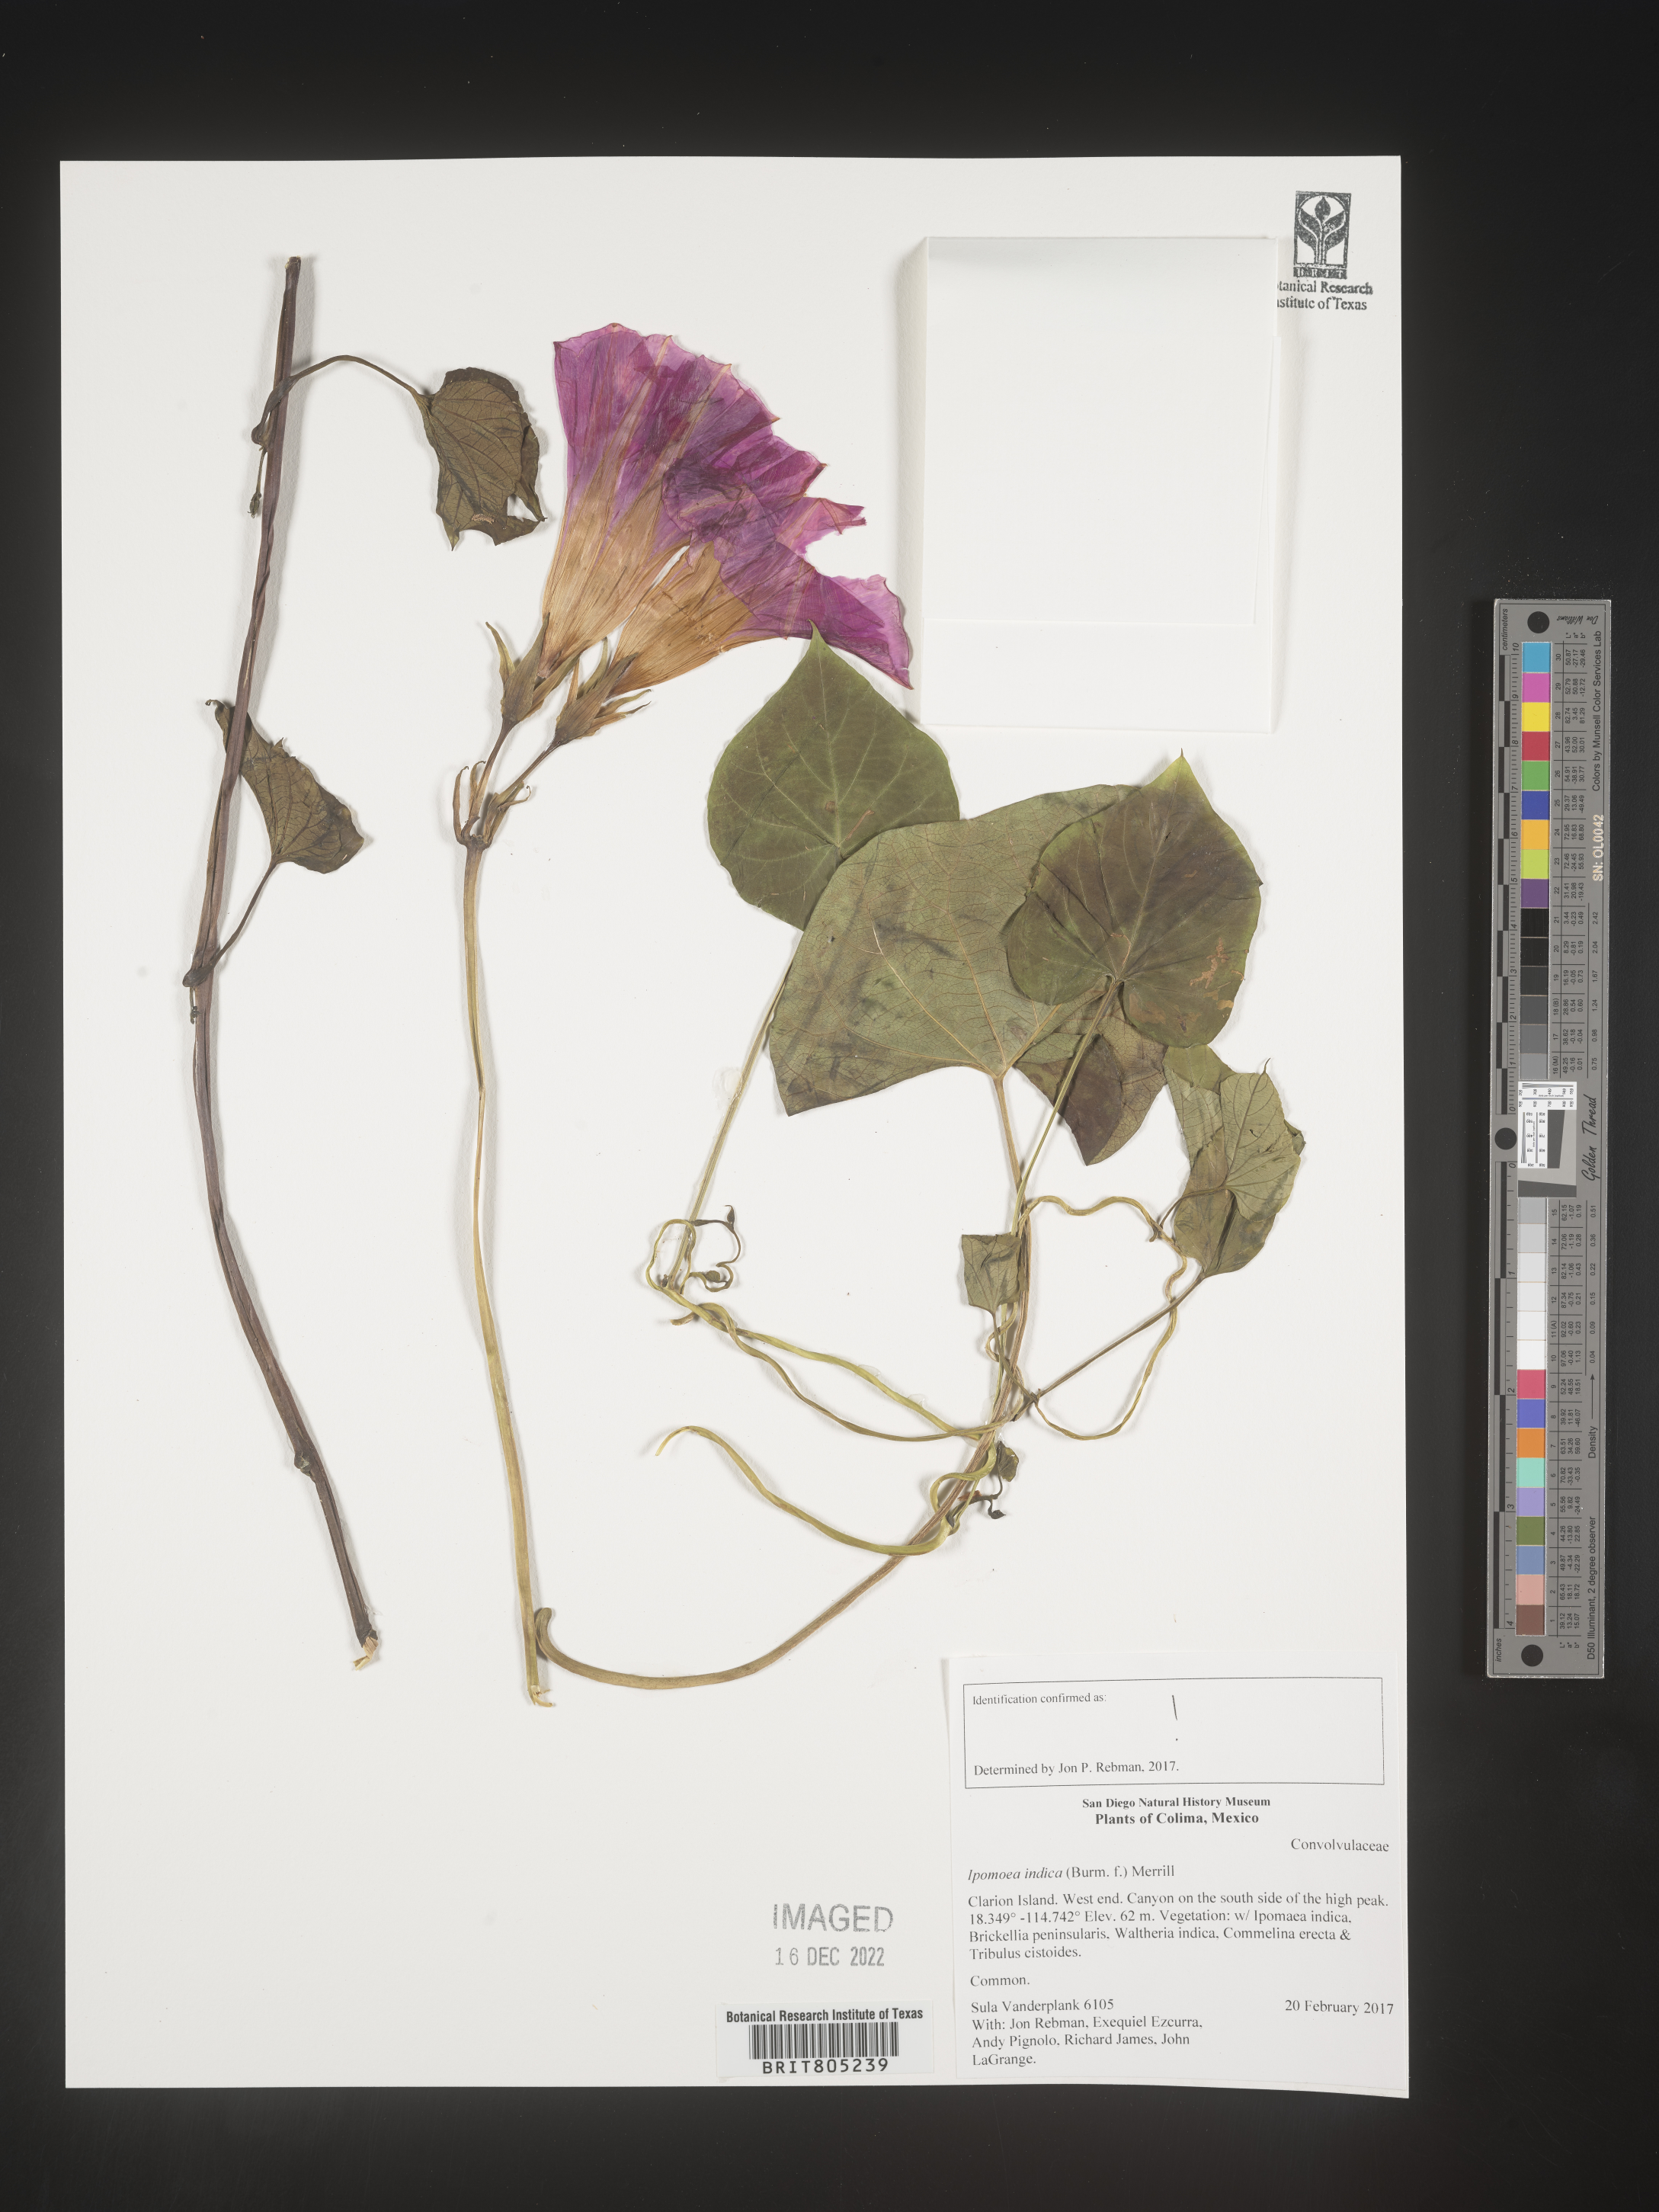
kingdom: Plantae
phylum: Tracheophyta
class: Magnoliopsida
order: Solanales
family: Convolvulaceae
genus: Ipomoea
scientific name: Ipomoea
